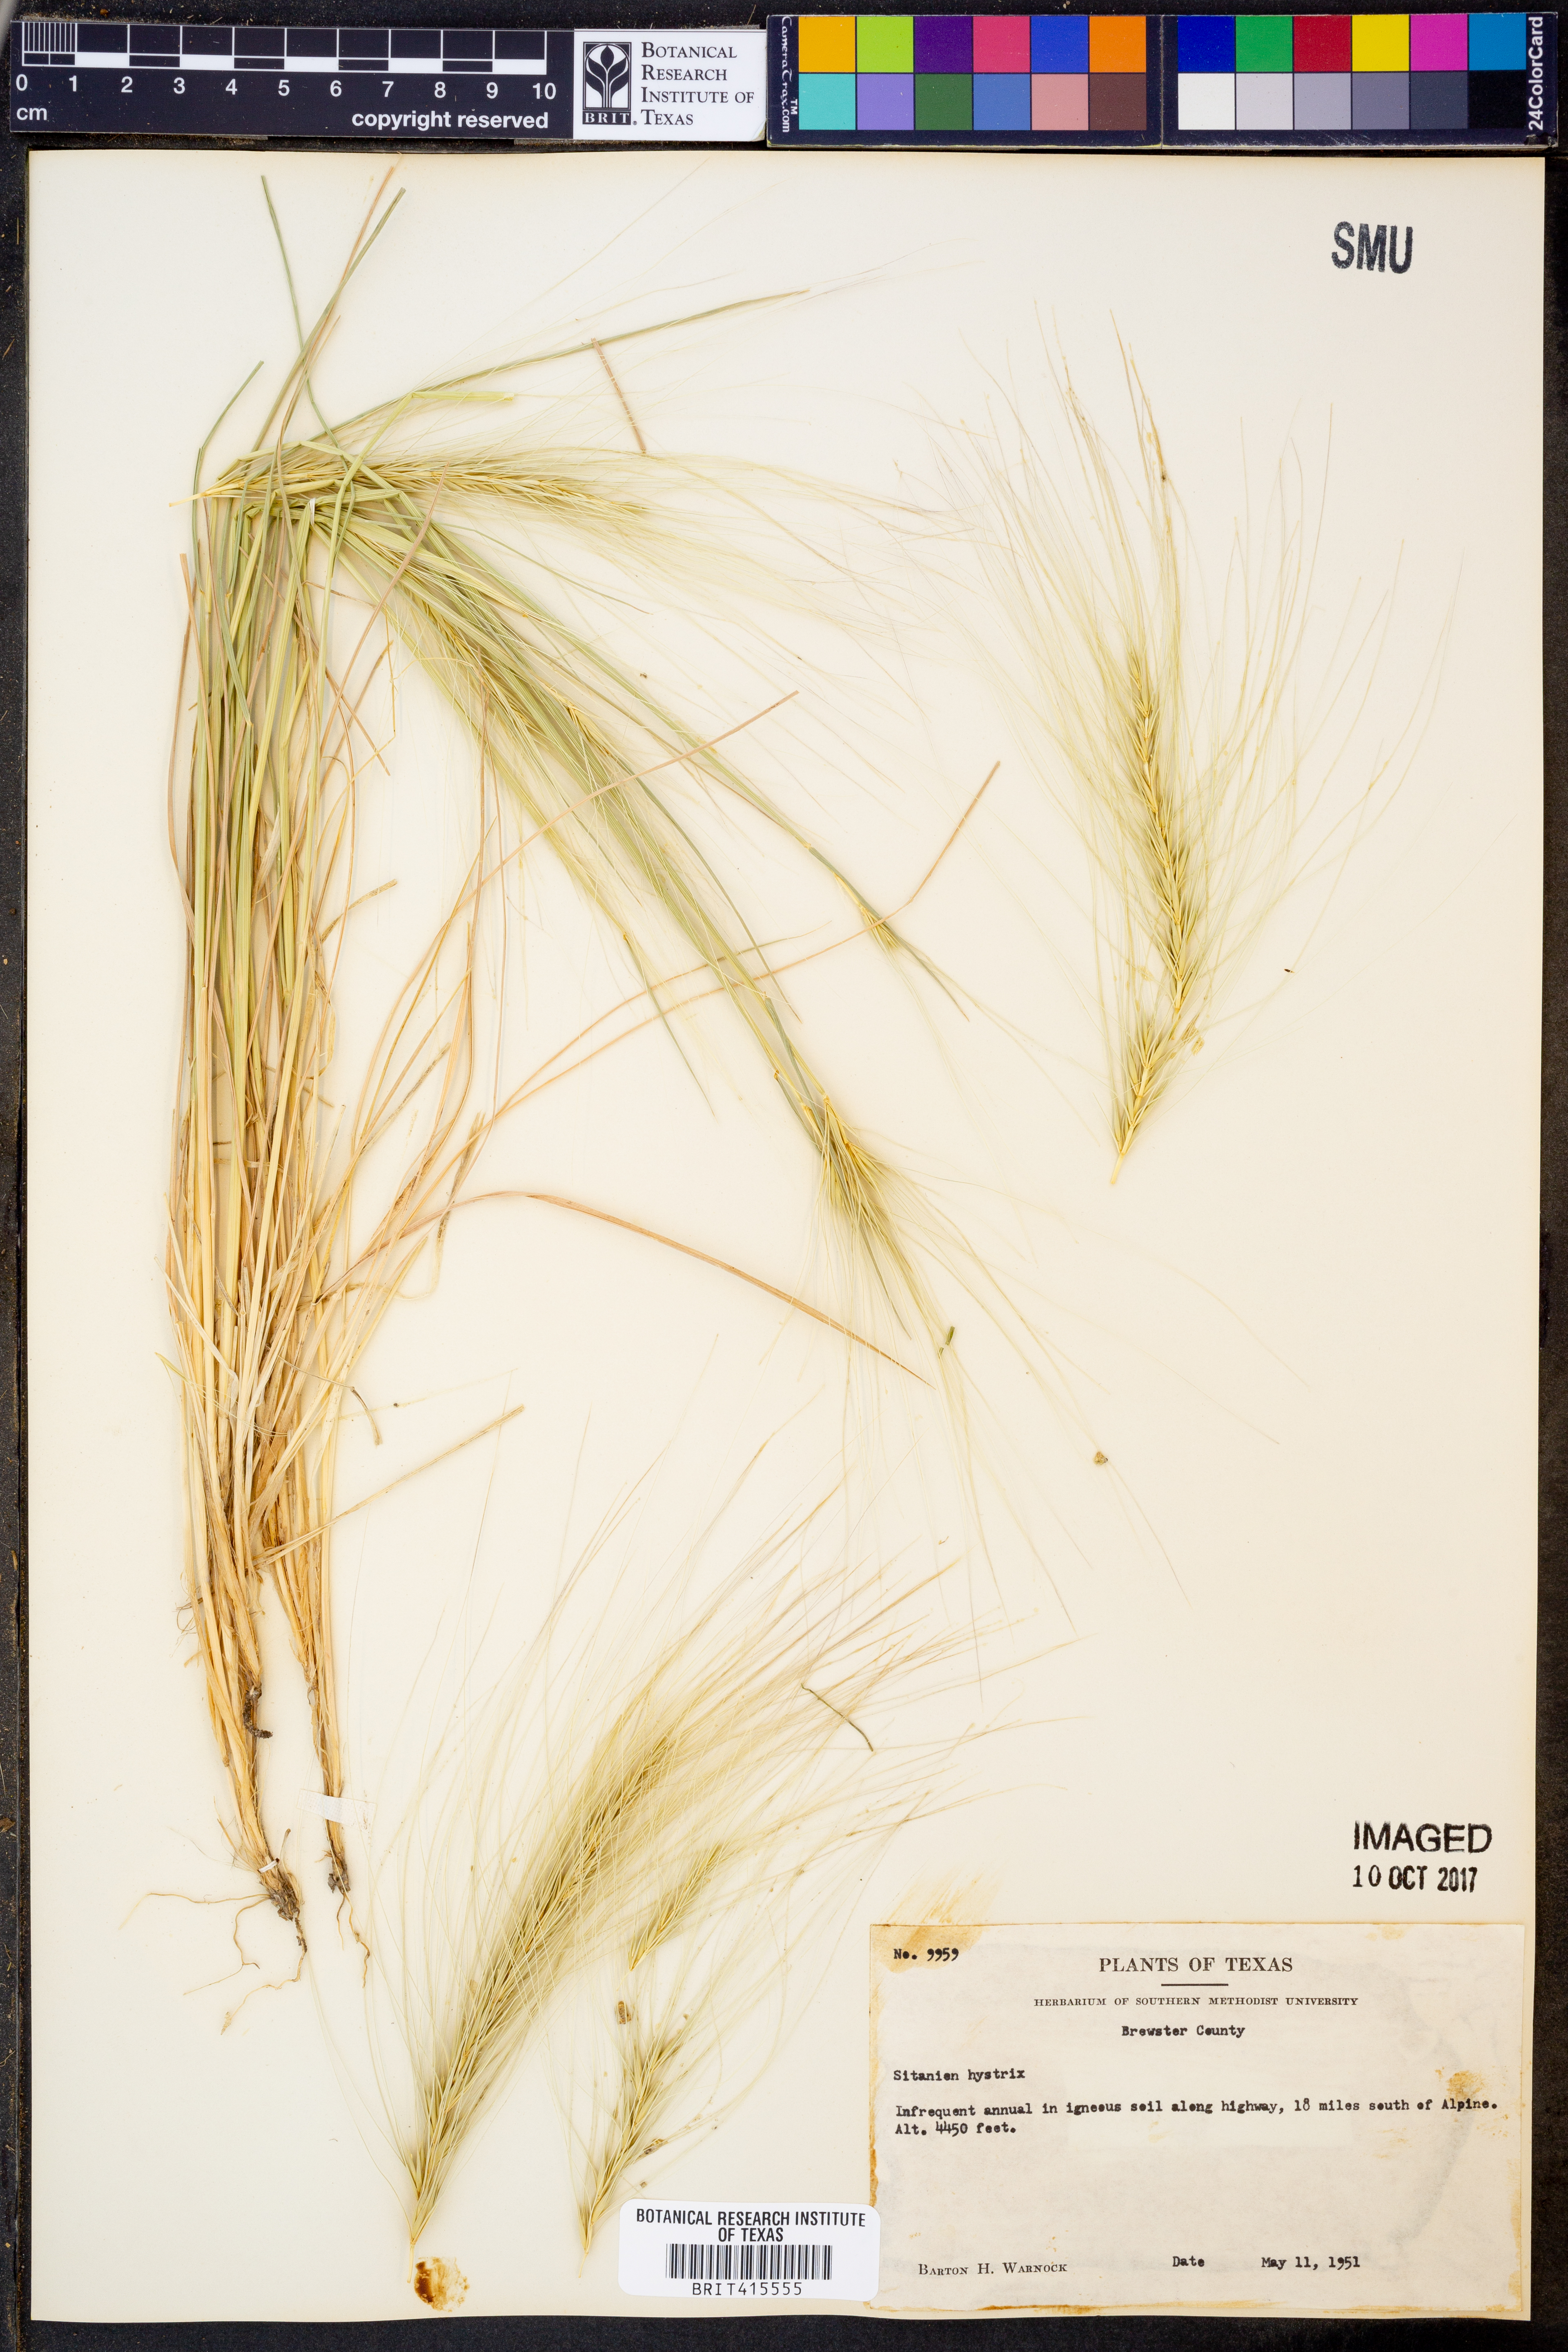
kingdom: Plantae
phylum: Tracheophyta
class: Liliopsida
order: Poales
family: Poaceae
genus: Elymus
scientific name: Elymus elymoides
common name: Bottlebrush squirreltail
